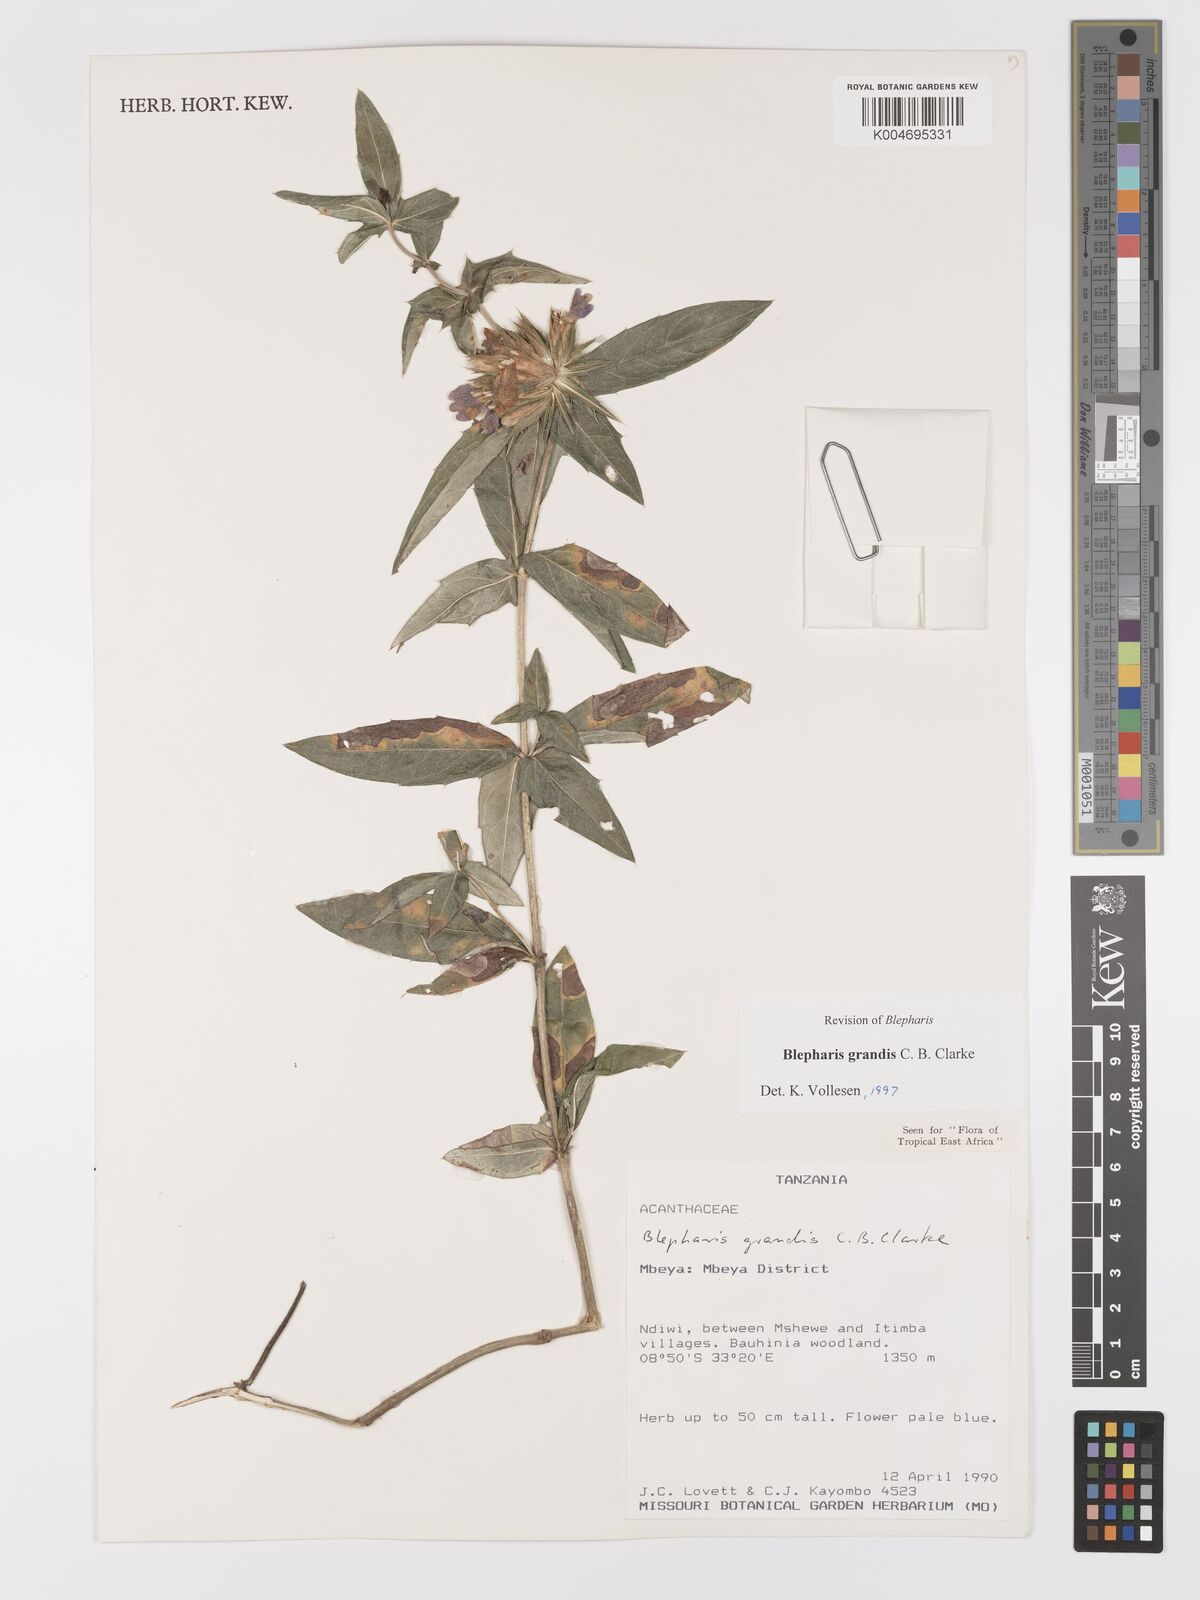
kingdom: Plantae
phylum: Tracheophyta
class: Magnoliopsida
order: Lamiales
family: Acanthaceae
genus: Blepharis
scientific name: Blepharis grandis
